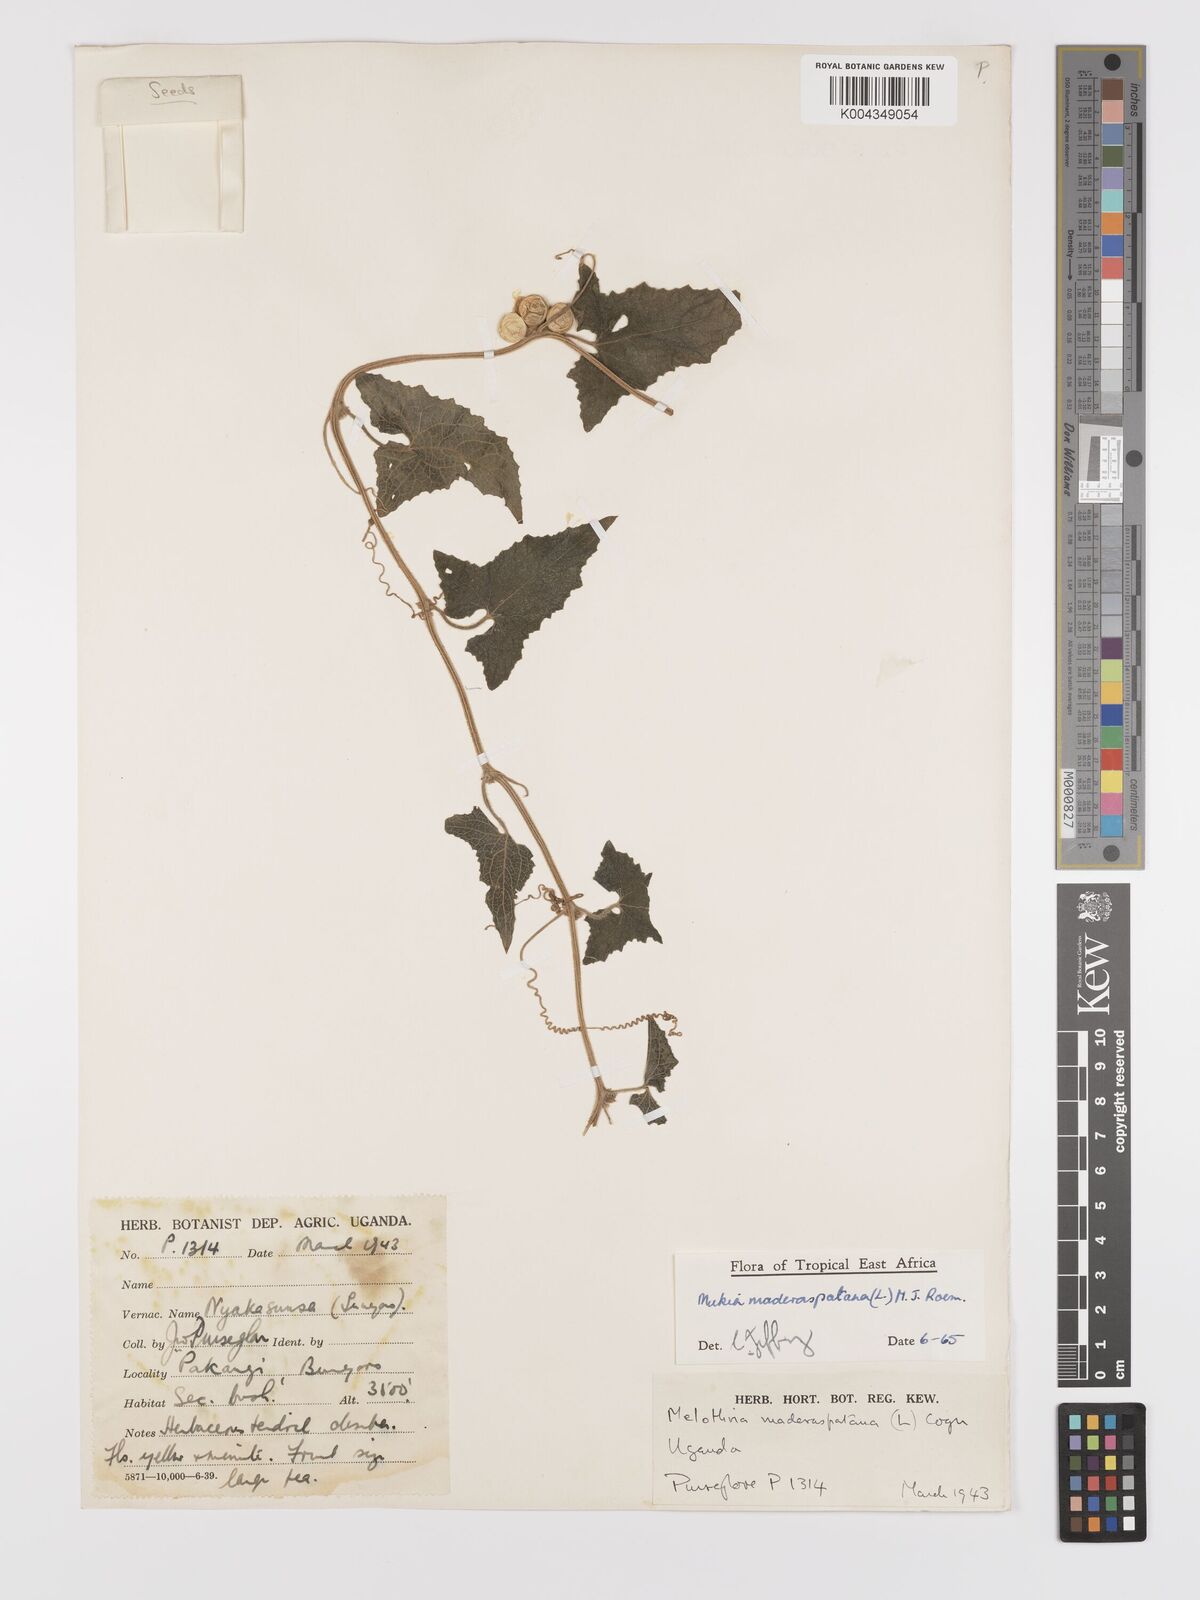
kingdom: Plantae
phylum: Tracheophyta
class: Magnoliopsida
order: Cucurbitales
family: Cucurbitaceae
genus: Cucumis
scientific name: Cucumis maderaspatanus
